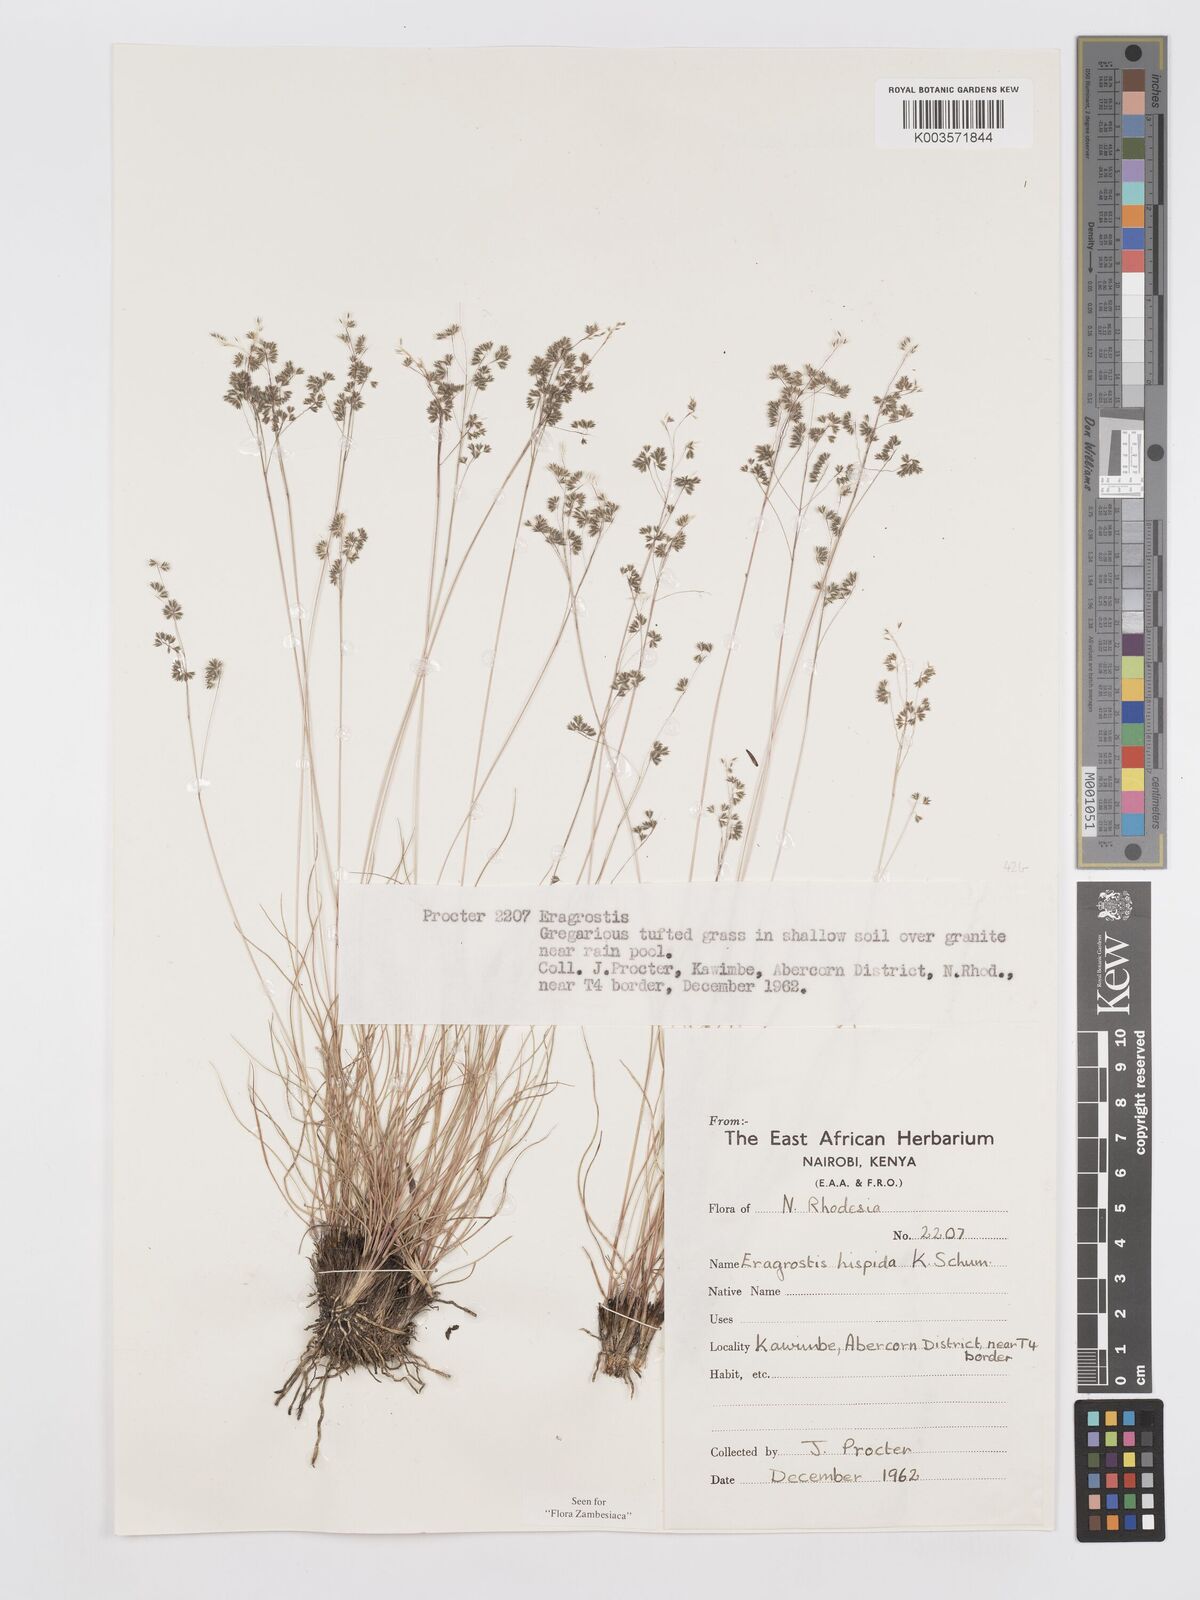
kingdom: Plantae
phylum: Tracheophyta
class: Liliopsida
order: Poales
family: Poaceae
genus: Eragrostis
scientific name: Eragrostis hispida
